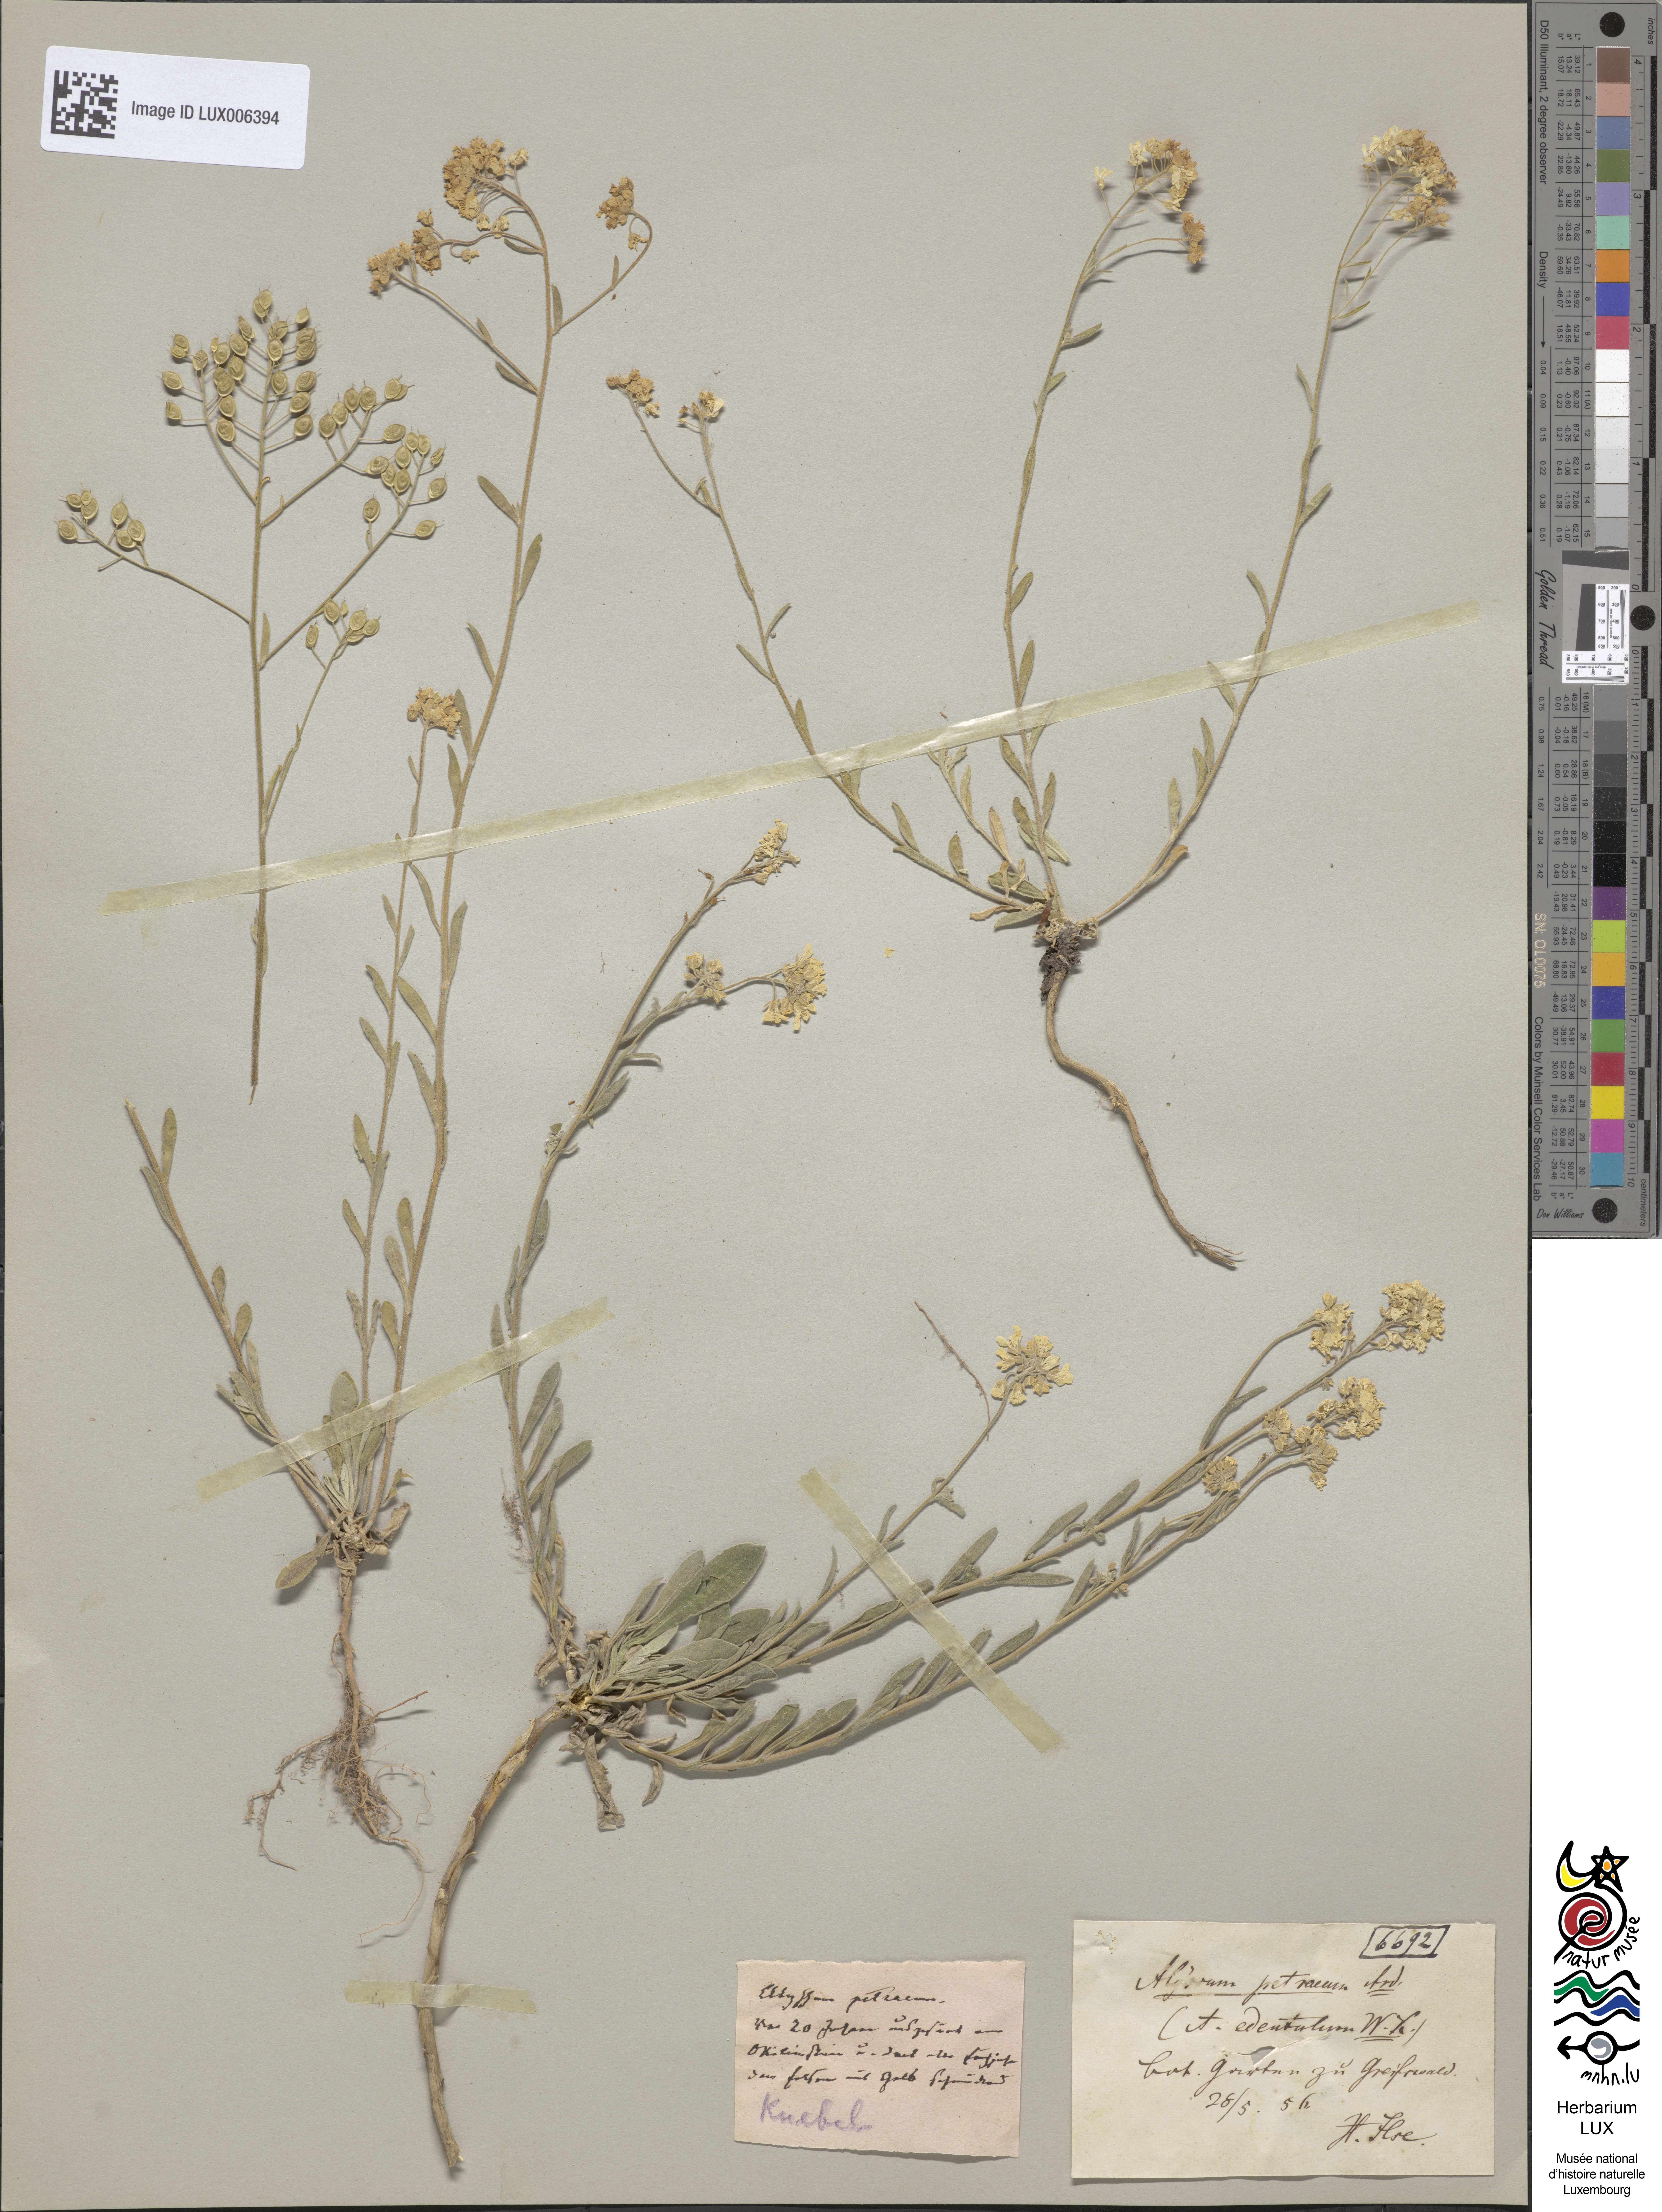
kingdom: Plantae
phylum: Tracheophyta
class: Magnoliopsida
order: Brassicales
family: Brassicaceae
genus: Aurinia
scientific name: Aurinia petraea
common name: Goldentuft
